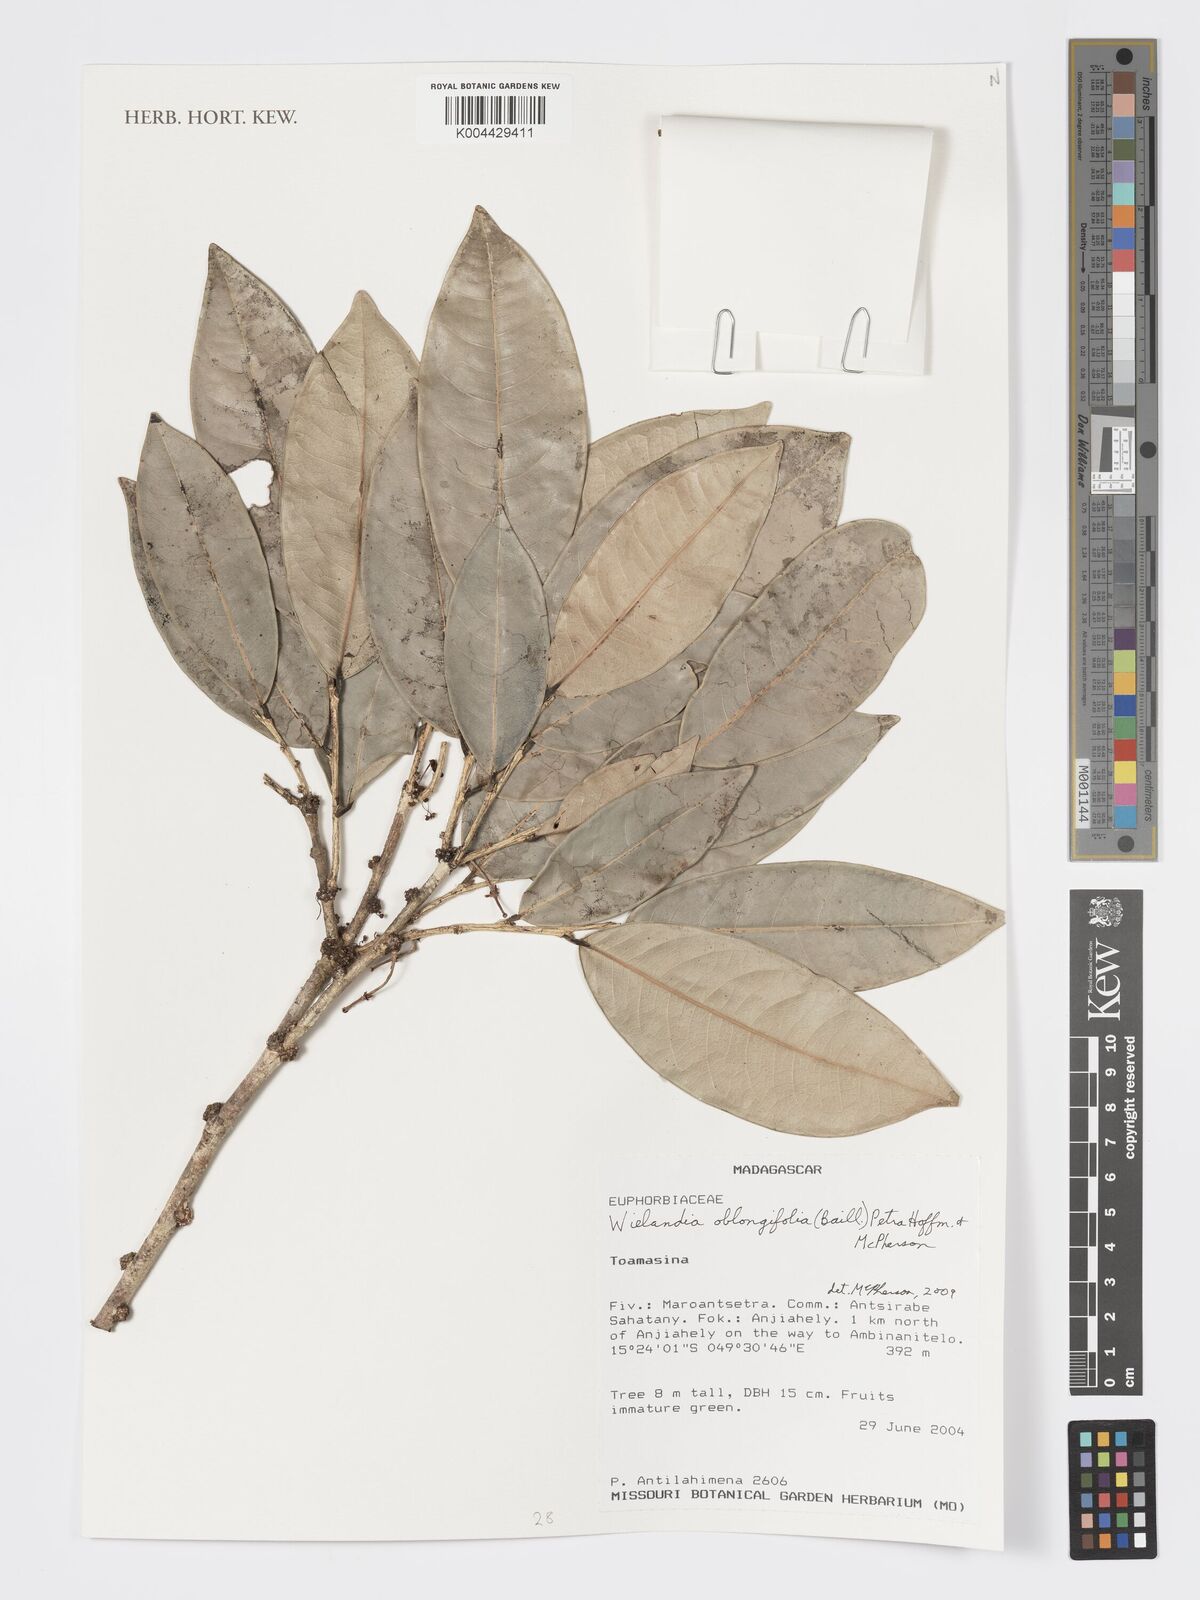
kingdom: Plantae
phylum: Tracheophyta
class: Magnoliopsida
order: Malpighiales
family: Phyllanthaceae
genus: Wielandia
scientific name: Wielandia oblongifolia
